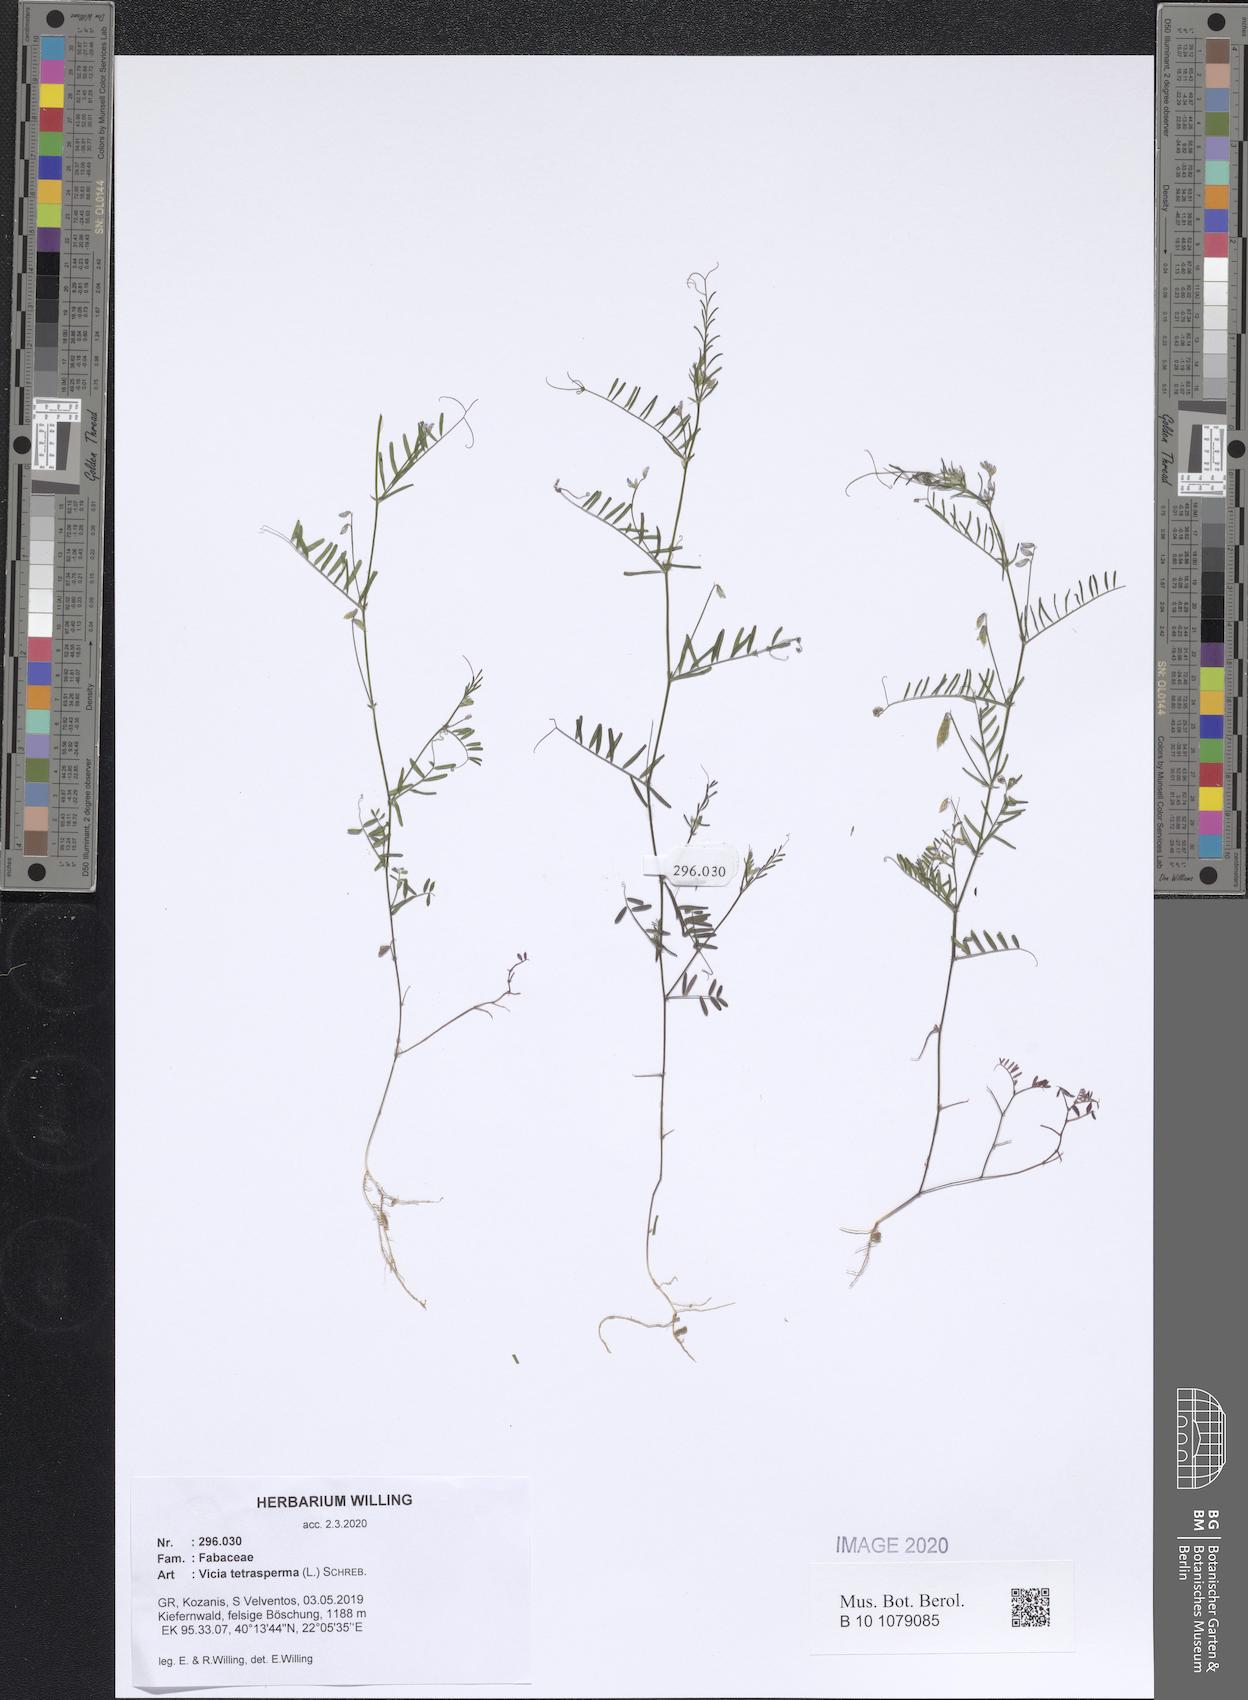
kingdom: Plantae
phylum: Tracheophyta
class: Magnoliopsida
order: Fabales
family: Fabaceae
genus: Vicia
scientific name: Vicia tetrasperma
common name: Smooth tare
